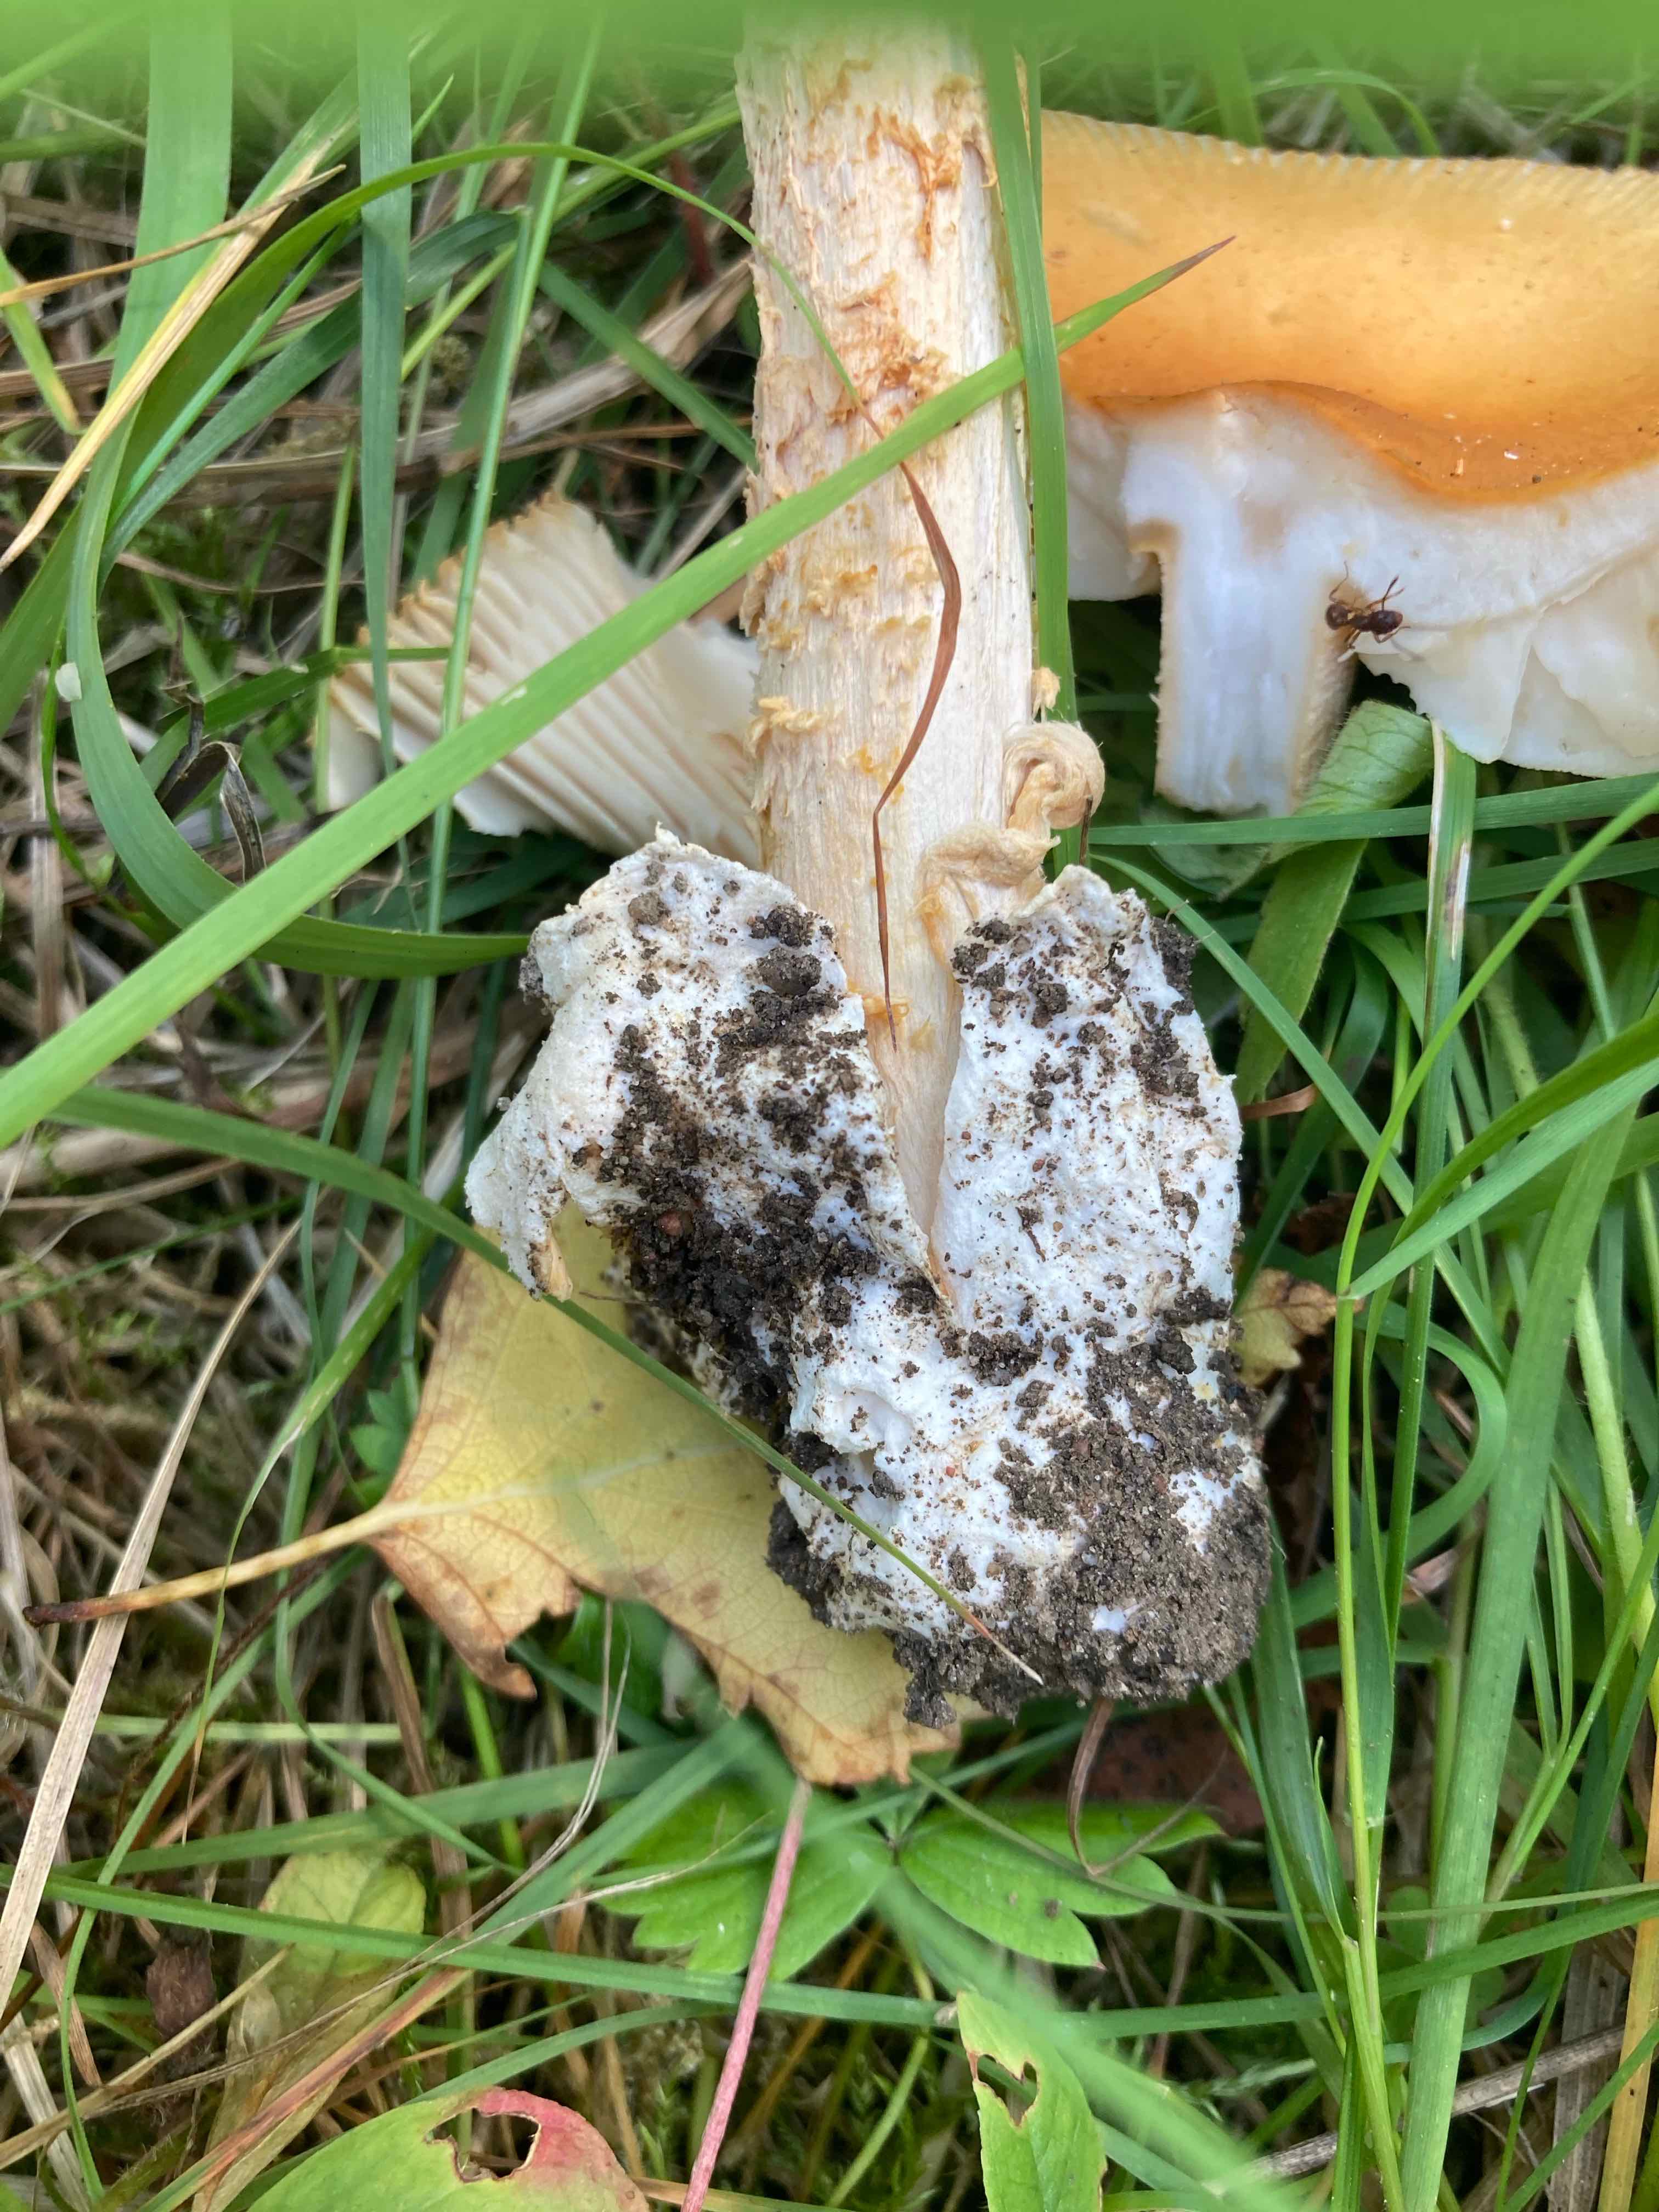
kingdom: Fungi
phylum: Basidiomycota
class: Agaricomycetes
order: Agaricales
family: Amanitaceae
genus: Amanita
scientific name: Amanita crocea
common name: gylden kam-fluesvamp
